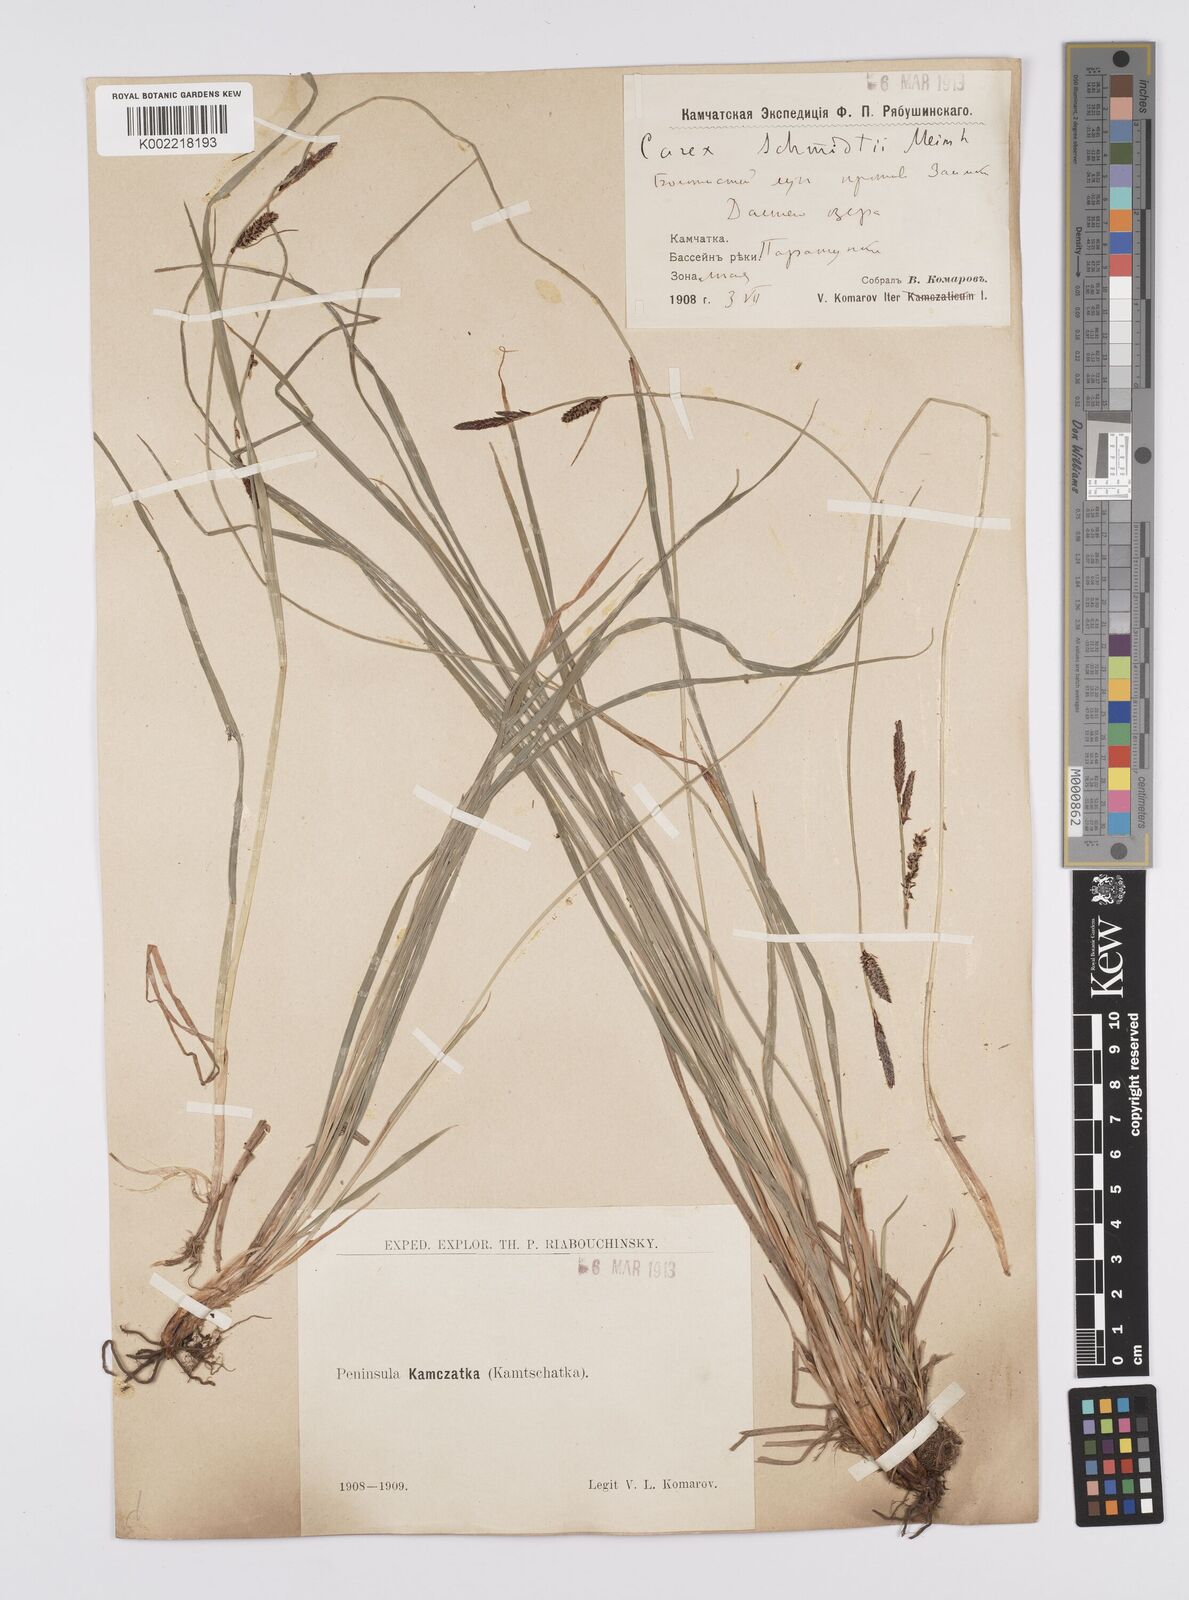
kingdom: Plantae
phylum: Tracheophyta
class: Liliopsida
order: Poales
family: Cyperaceae
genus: Carex
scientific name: Carex schmidtii
